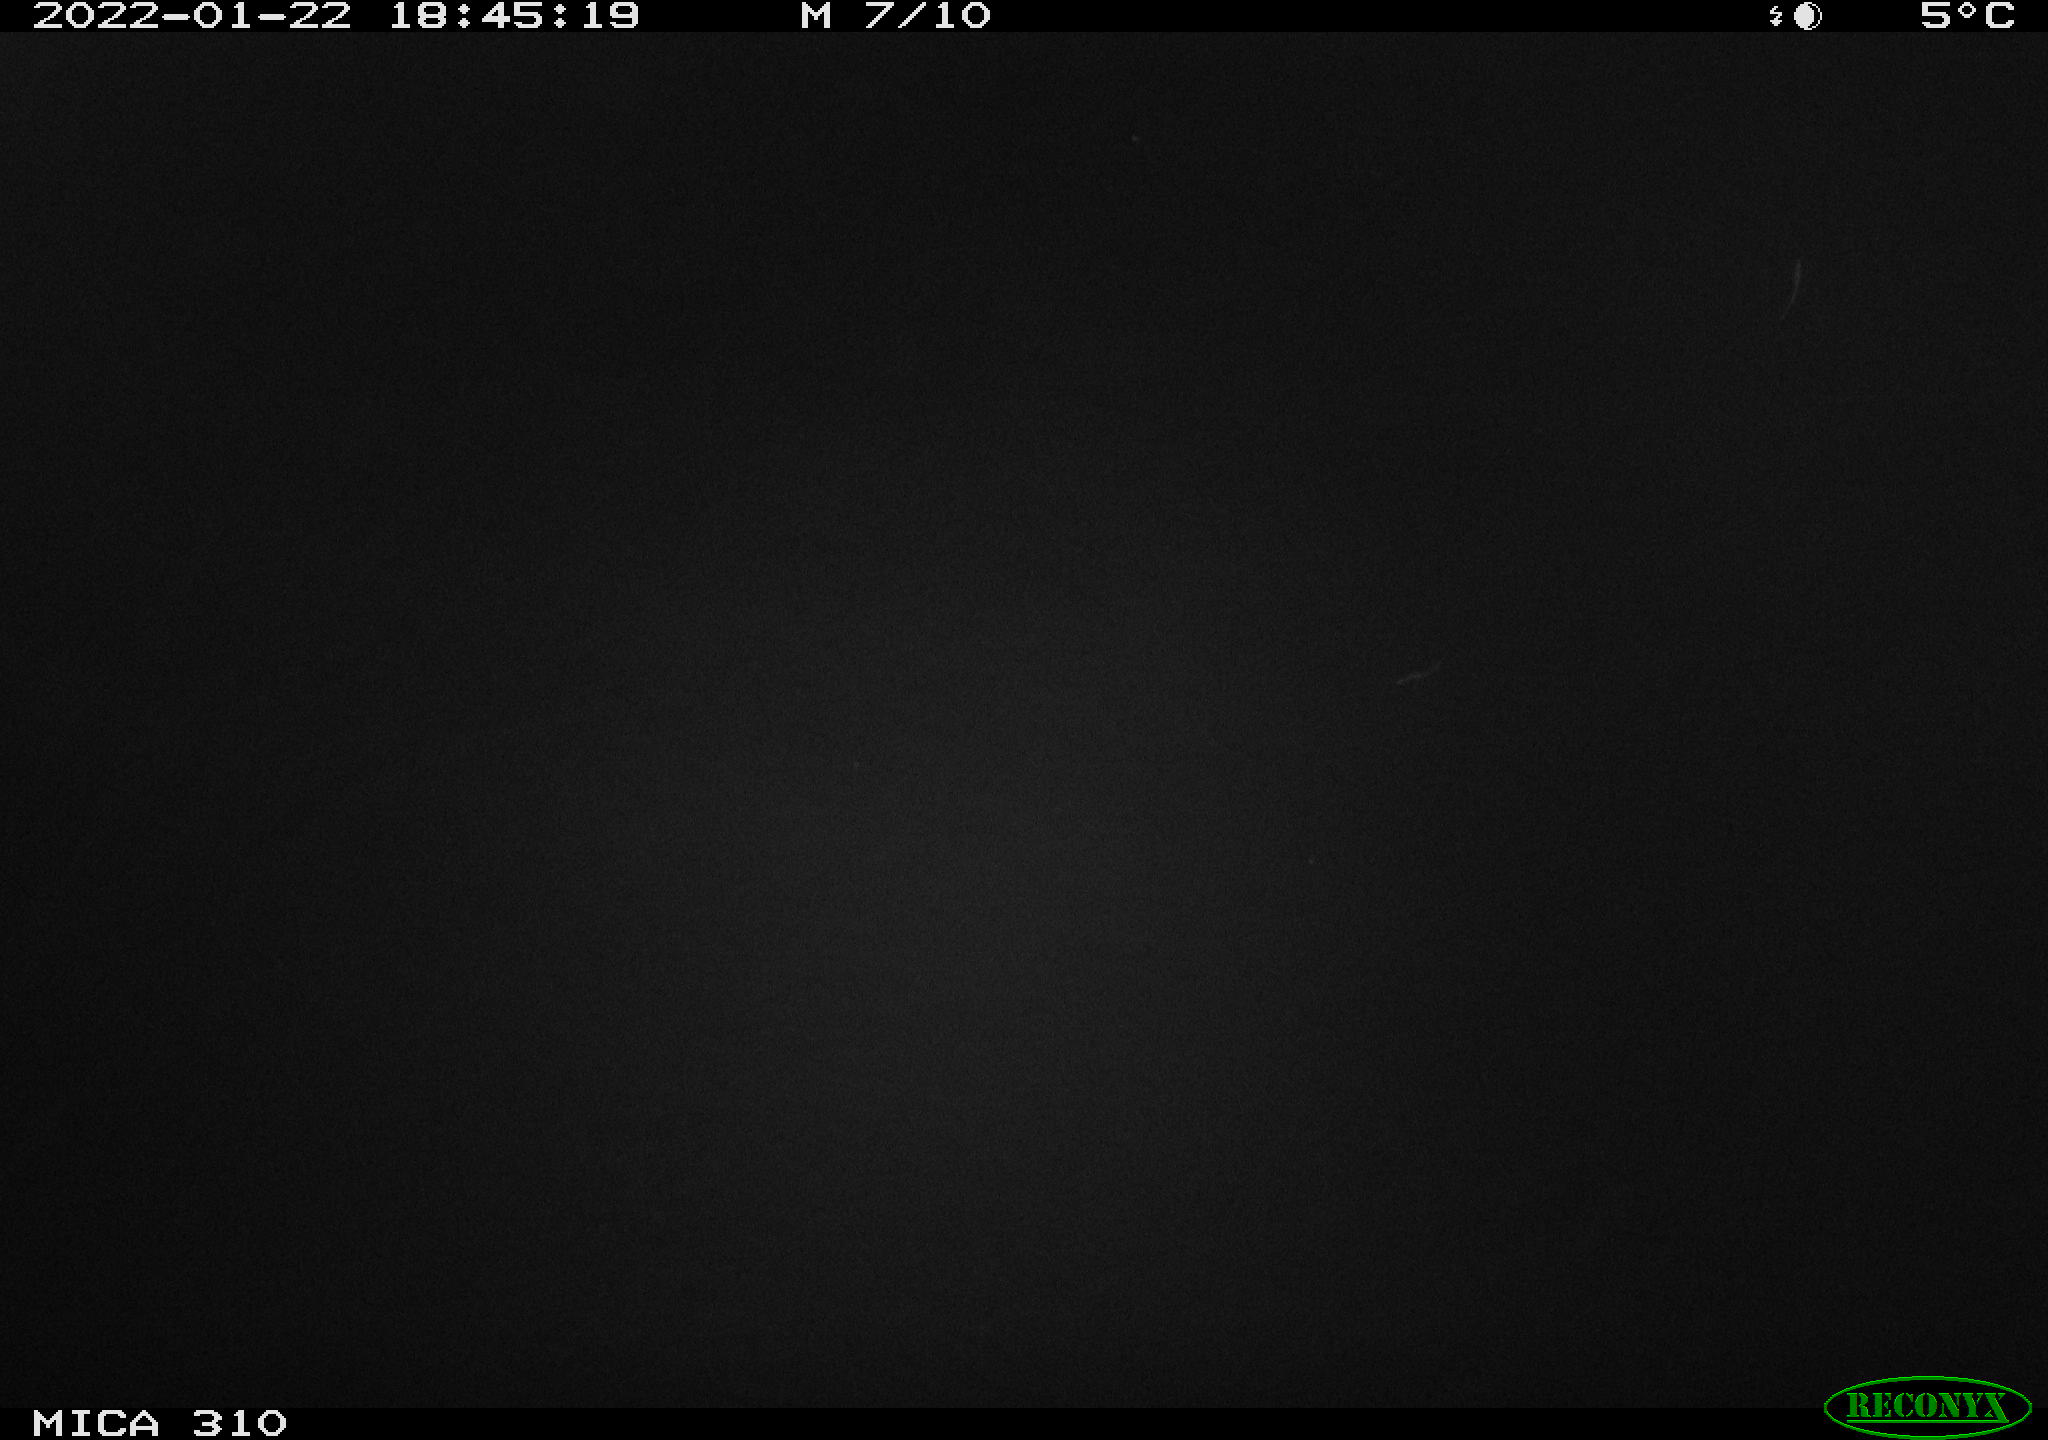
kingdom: Animalia
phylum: Chordata
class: Mammalia
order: Rodentia
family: Cricetidae
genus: Ondatra
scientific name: Ondatra zibethicus
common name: Muskrat
